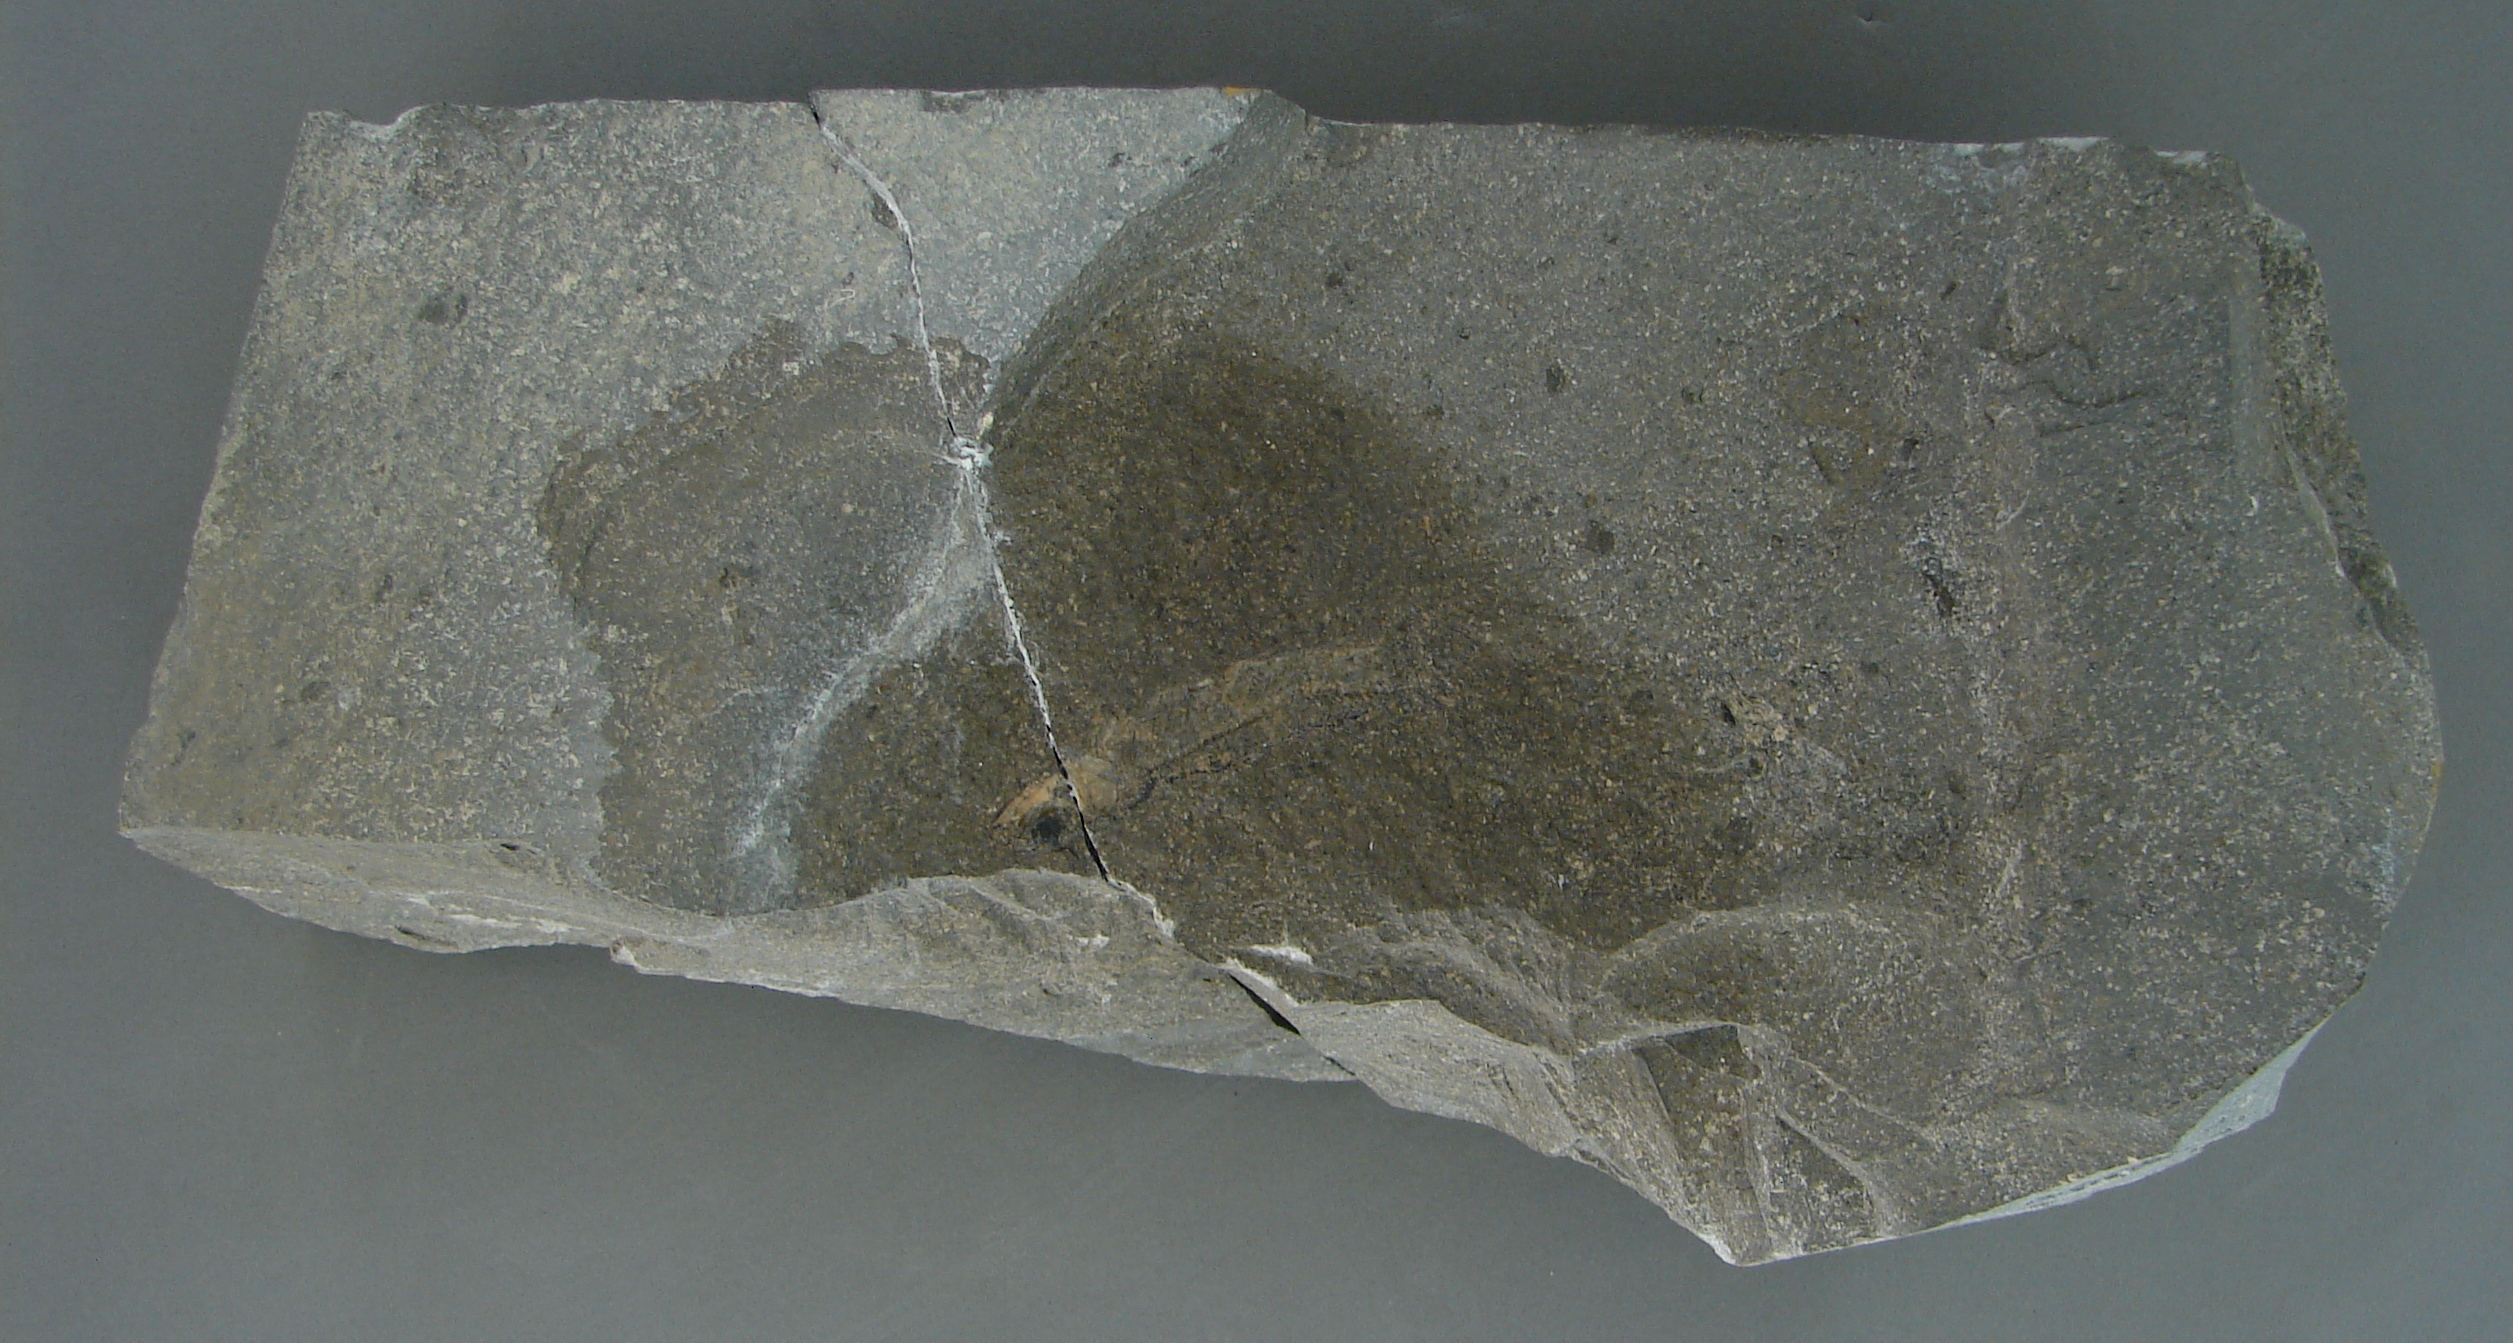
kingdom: Animalia
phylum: Chordata
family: Leptolepididae
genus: Leptolepis
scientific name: Leptolepis normandica
